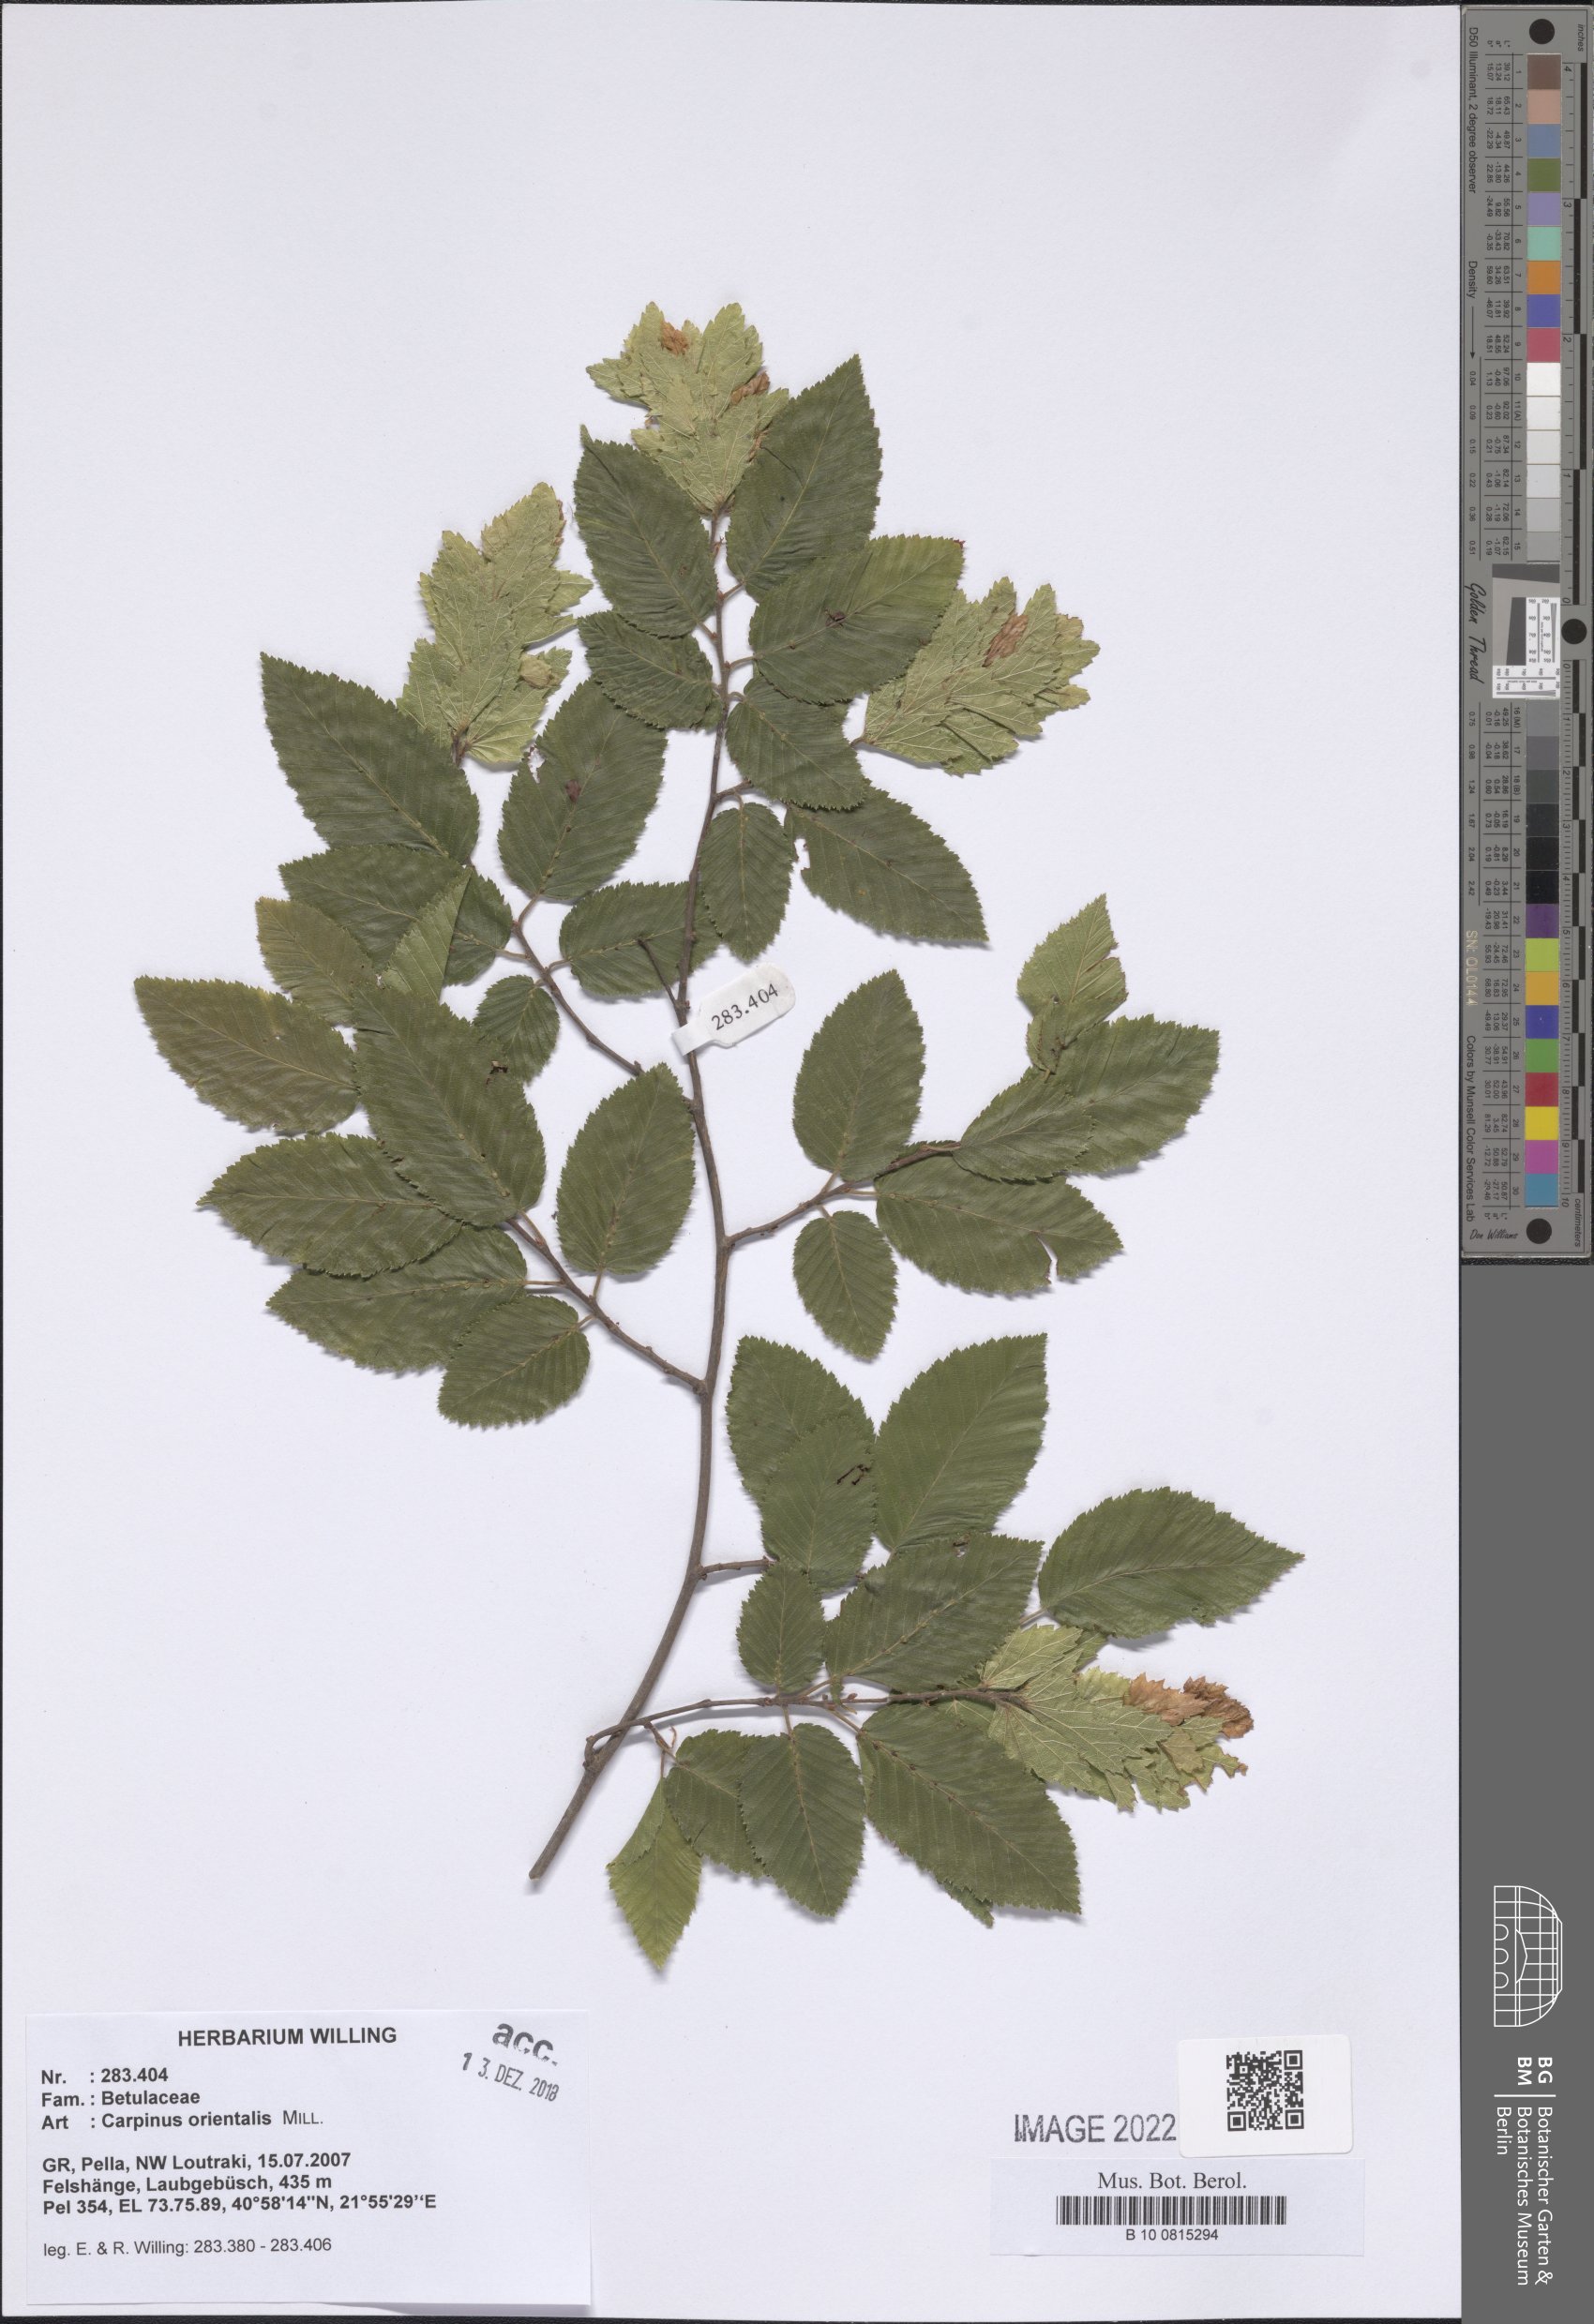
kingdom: Plantae
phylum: Tracheophyta
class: Magnoliopsida
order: Fagales
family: Betulaceae
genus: Carpinus
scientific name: Carpinus orientalis
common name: Eastern hornbeam
